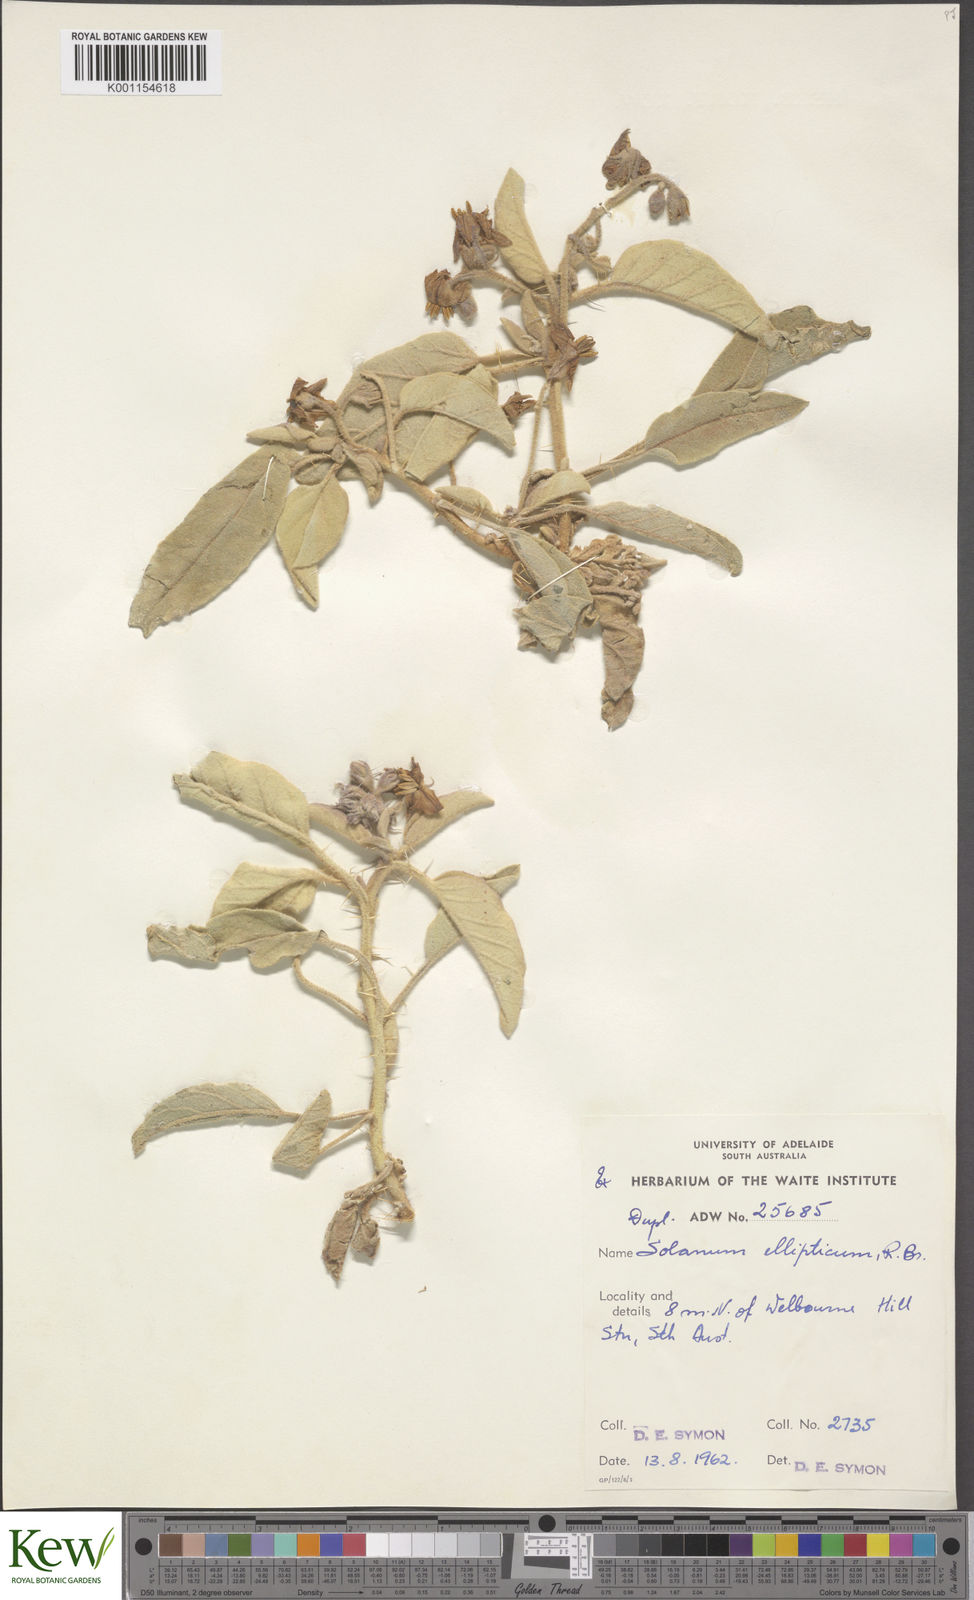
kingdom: Plantae
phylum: Tracheophyta
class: Magnoliopsida
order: Solanales
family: Solanaceae
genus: Solanum
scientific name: Solanum ellipticum
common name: Potato-bush
